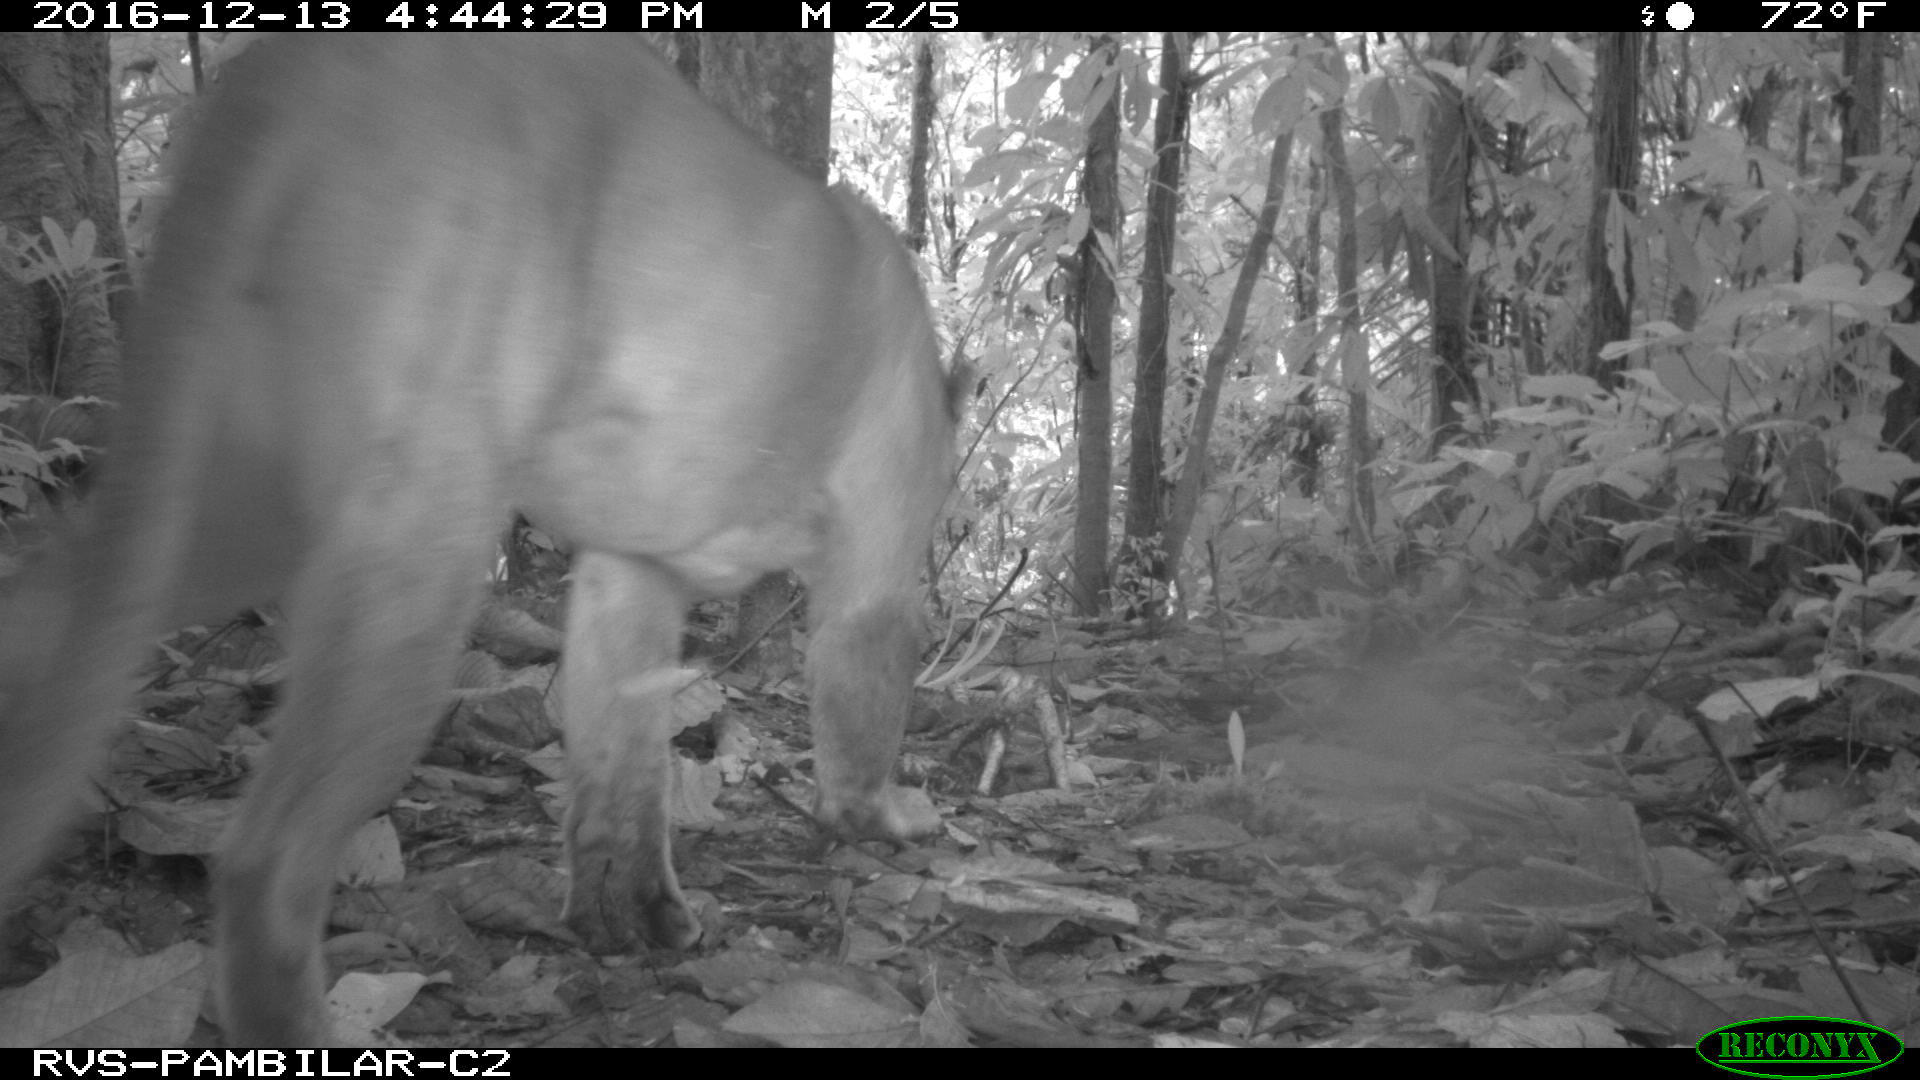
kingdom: Animalia
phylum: Chordata
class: Mammalia
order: Carnivora
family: Felidae
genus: Puma
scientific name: Puma concolor
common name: Puma
